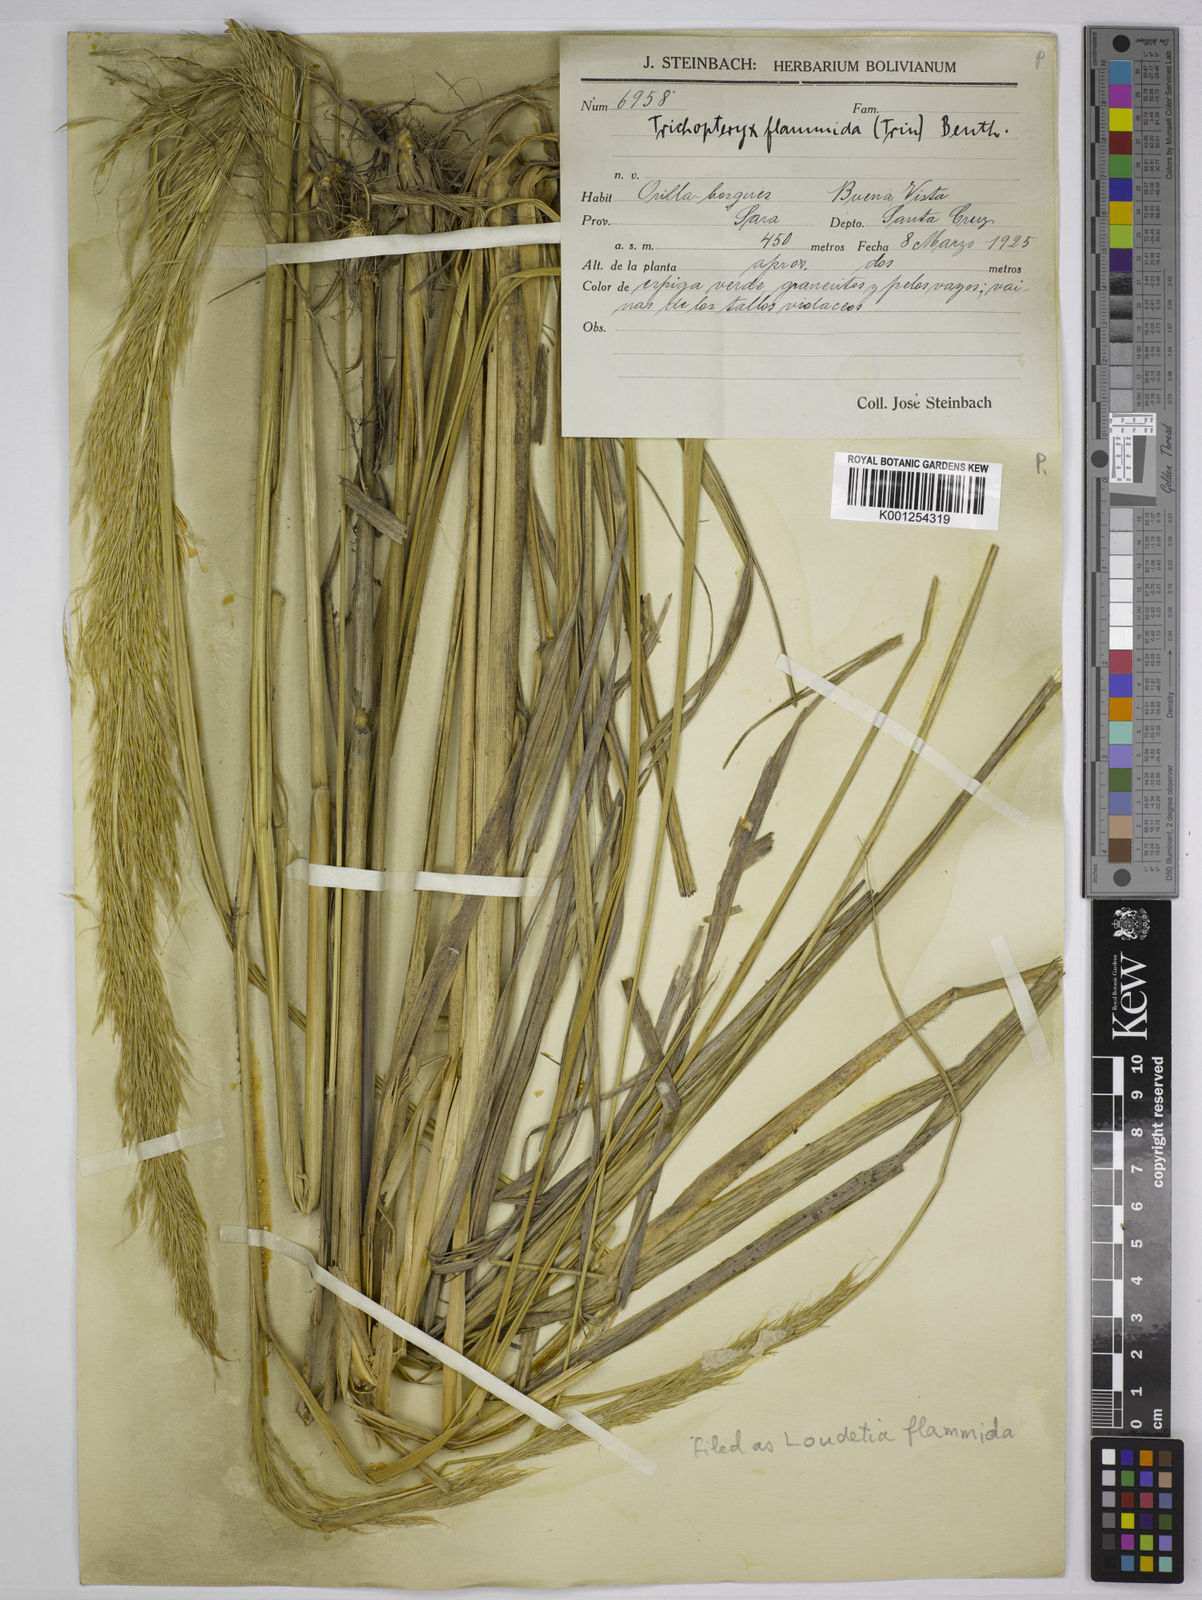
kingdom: Plantae
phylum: Tracheophyta
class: Liliopsida
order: Poales
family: Poaceae
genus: Loudetia
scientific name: Loudetia flammida
